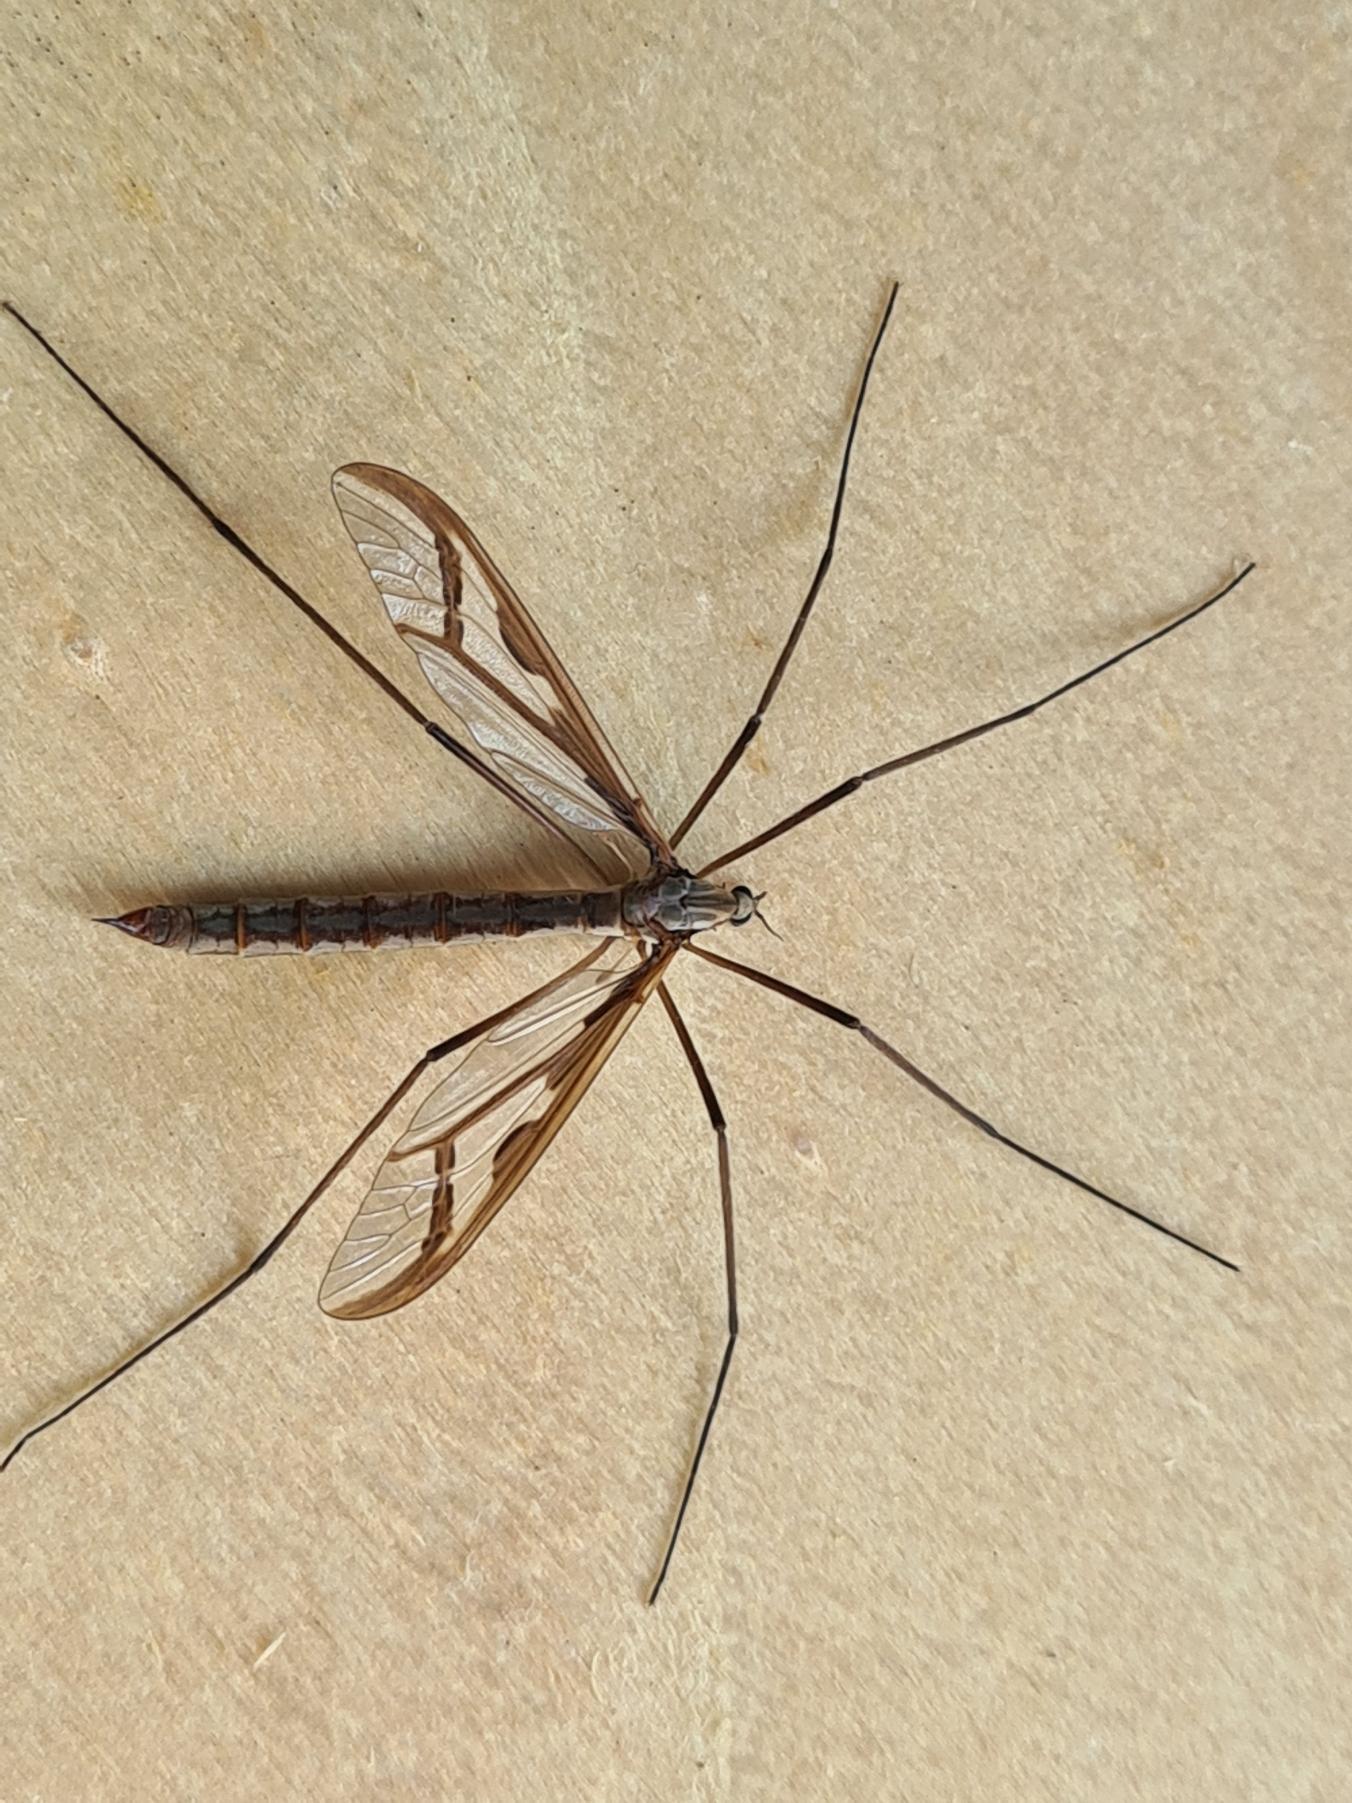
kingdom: Animalia
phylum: Arthropoda
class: Insecta
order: Diptera
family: Pediciidae
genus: Pedicia
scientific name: Pedicia rivosa
